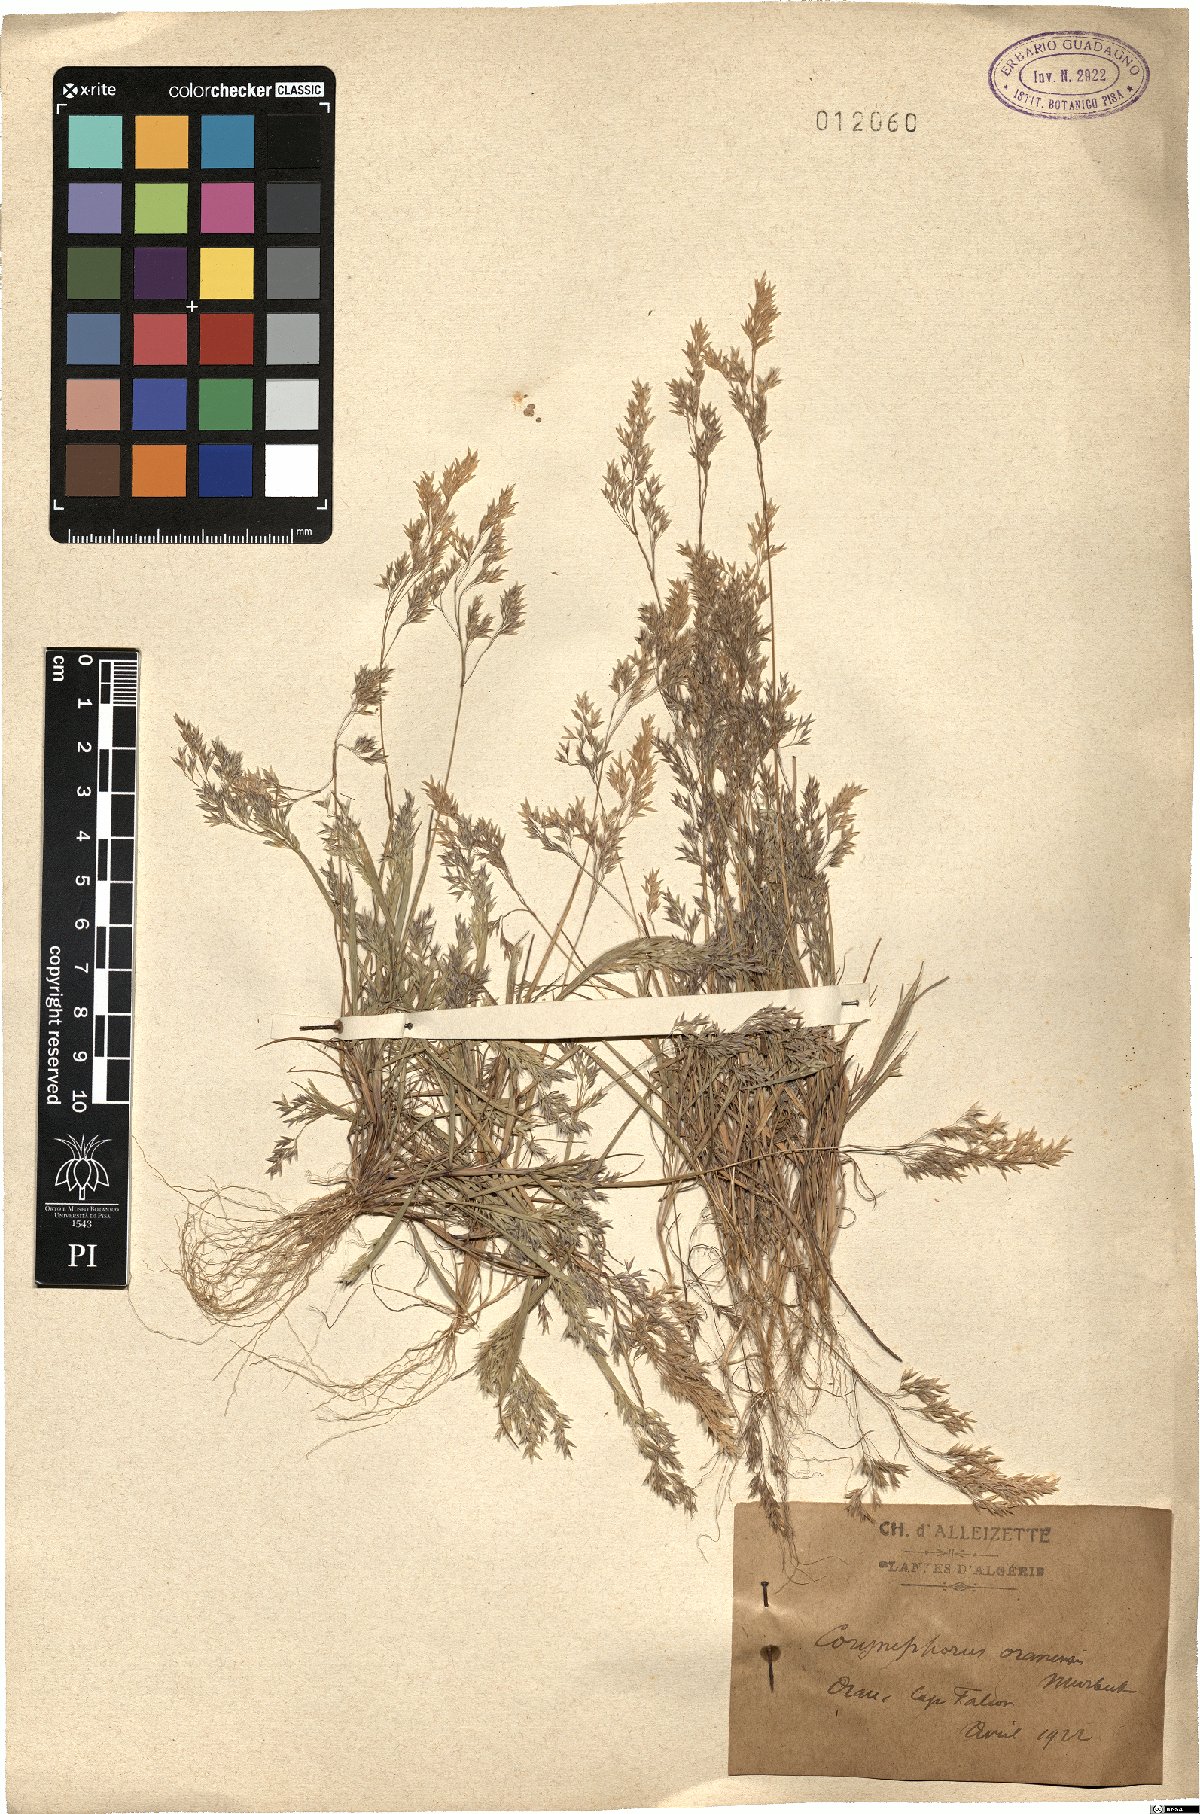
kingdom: Plantae
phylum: Tracheophyta
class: Magnoliopsida
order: Sapindales
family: Sapindaceae
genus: Paullinia
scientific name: Paullinia meliifolia
